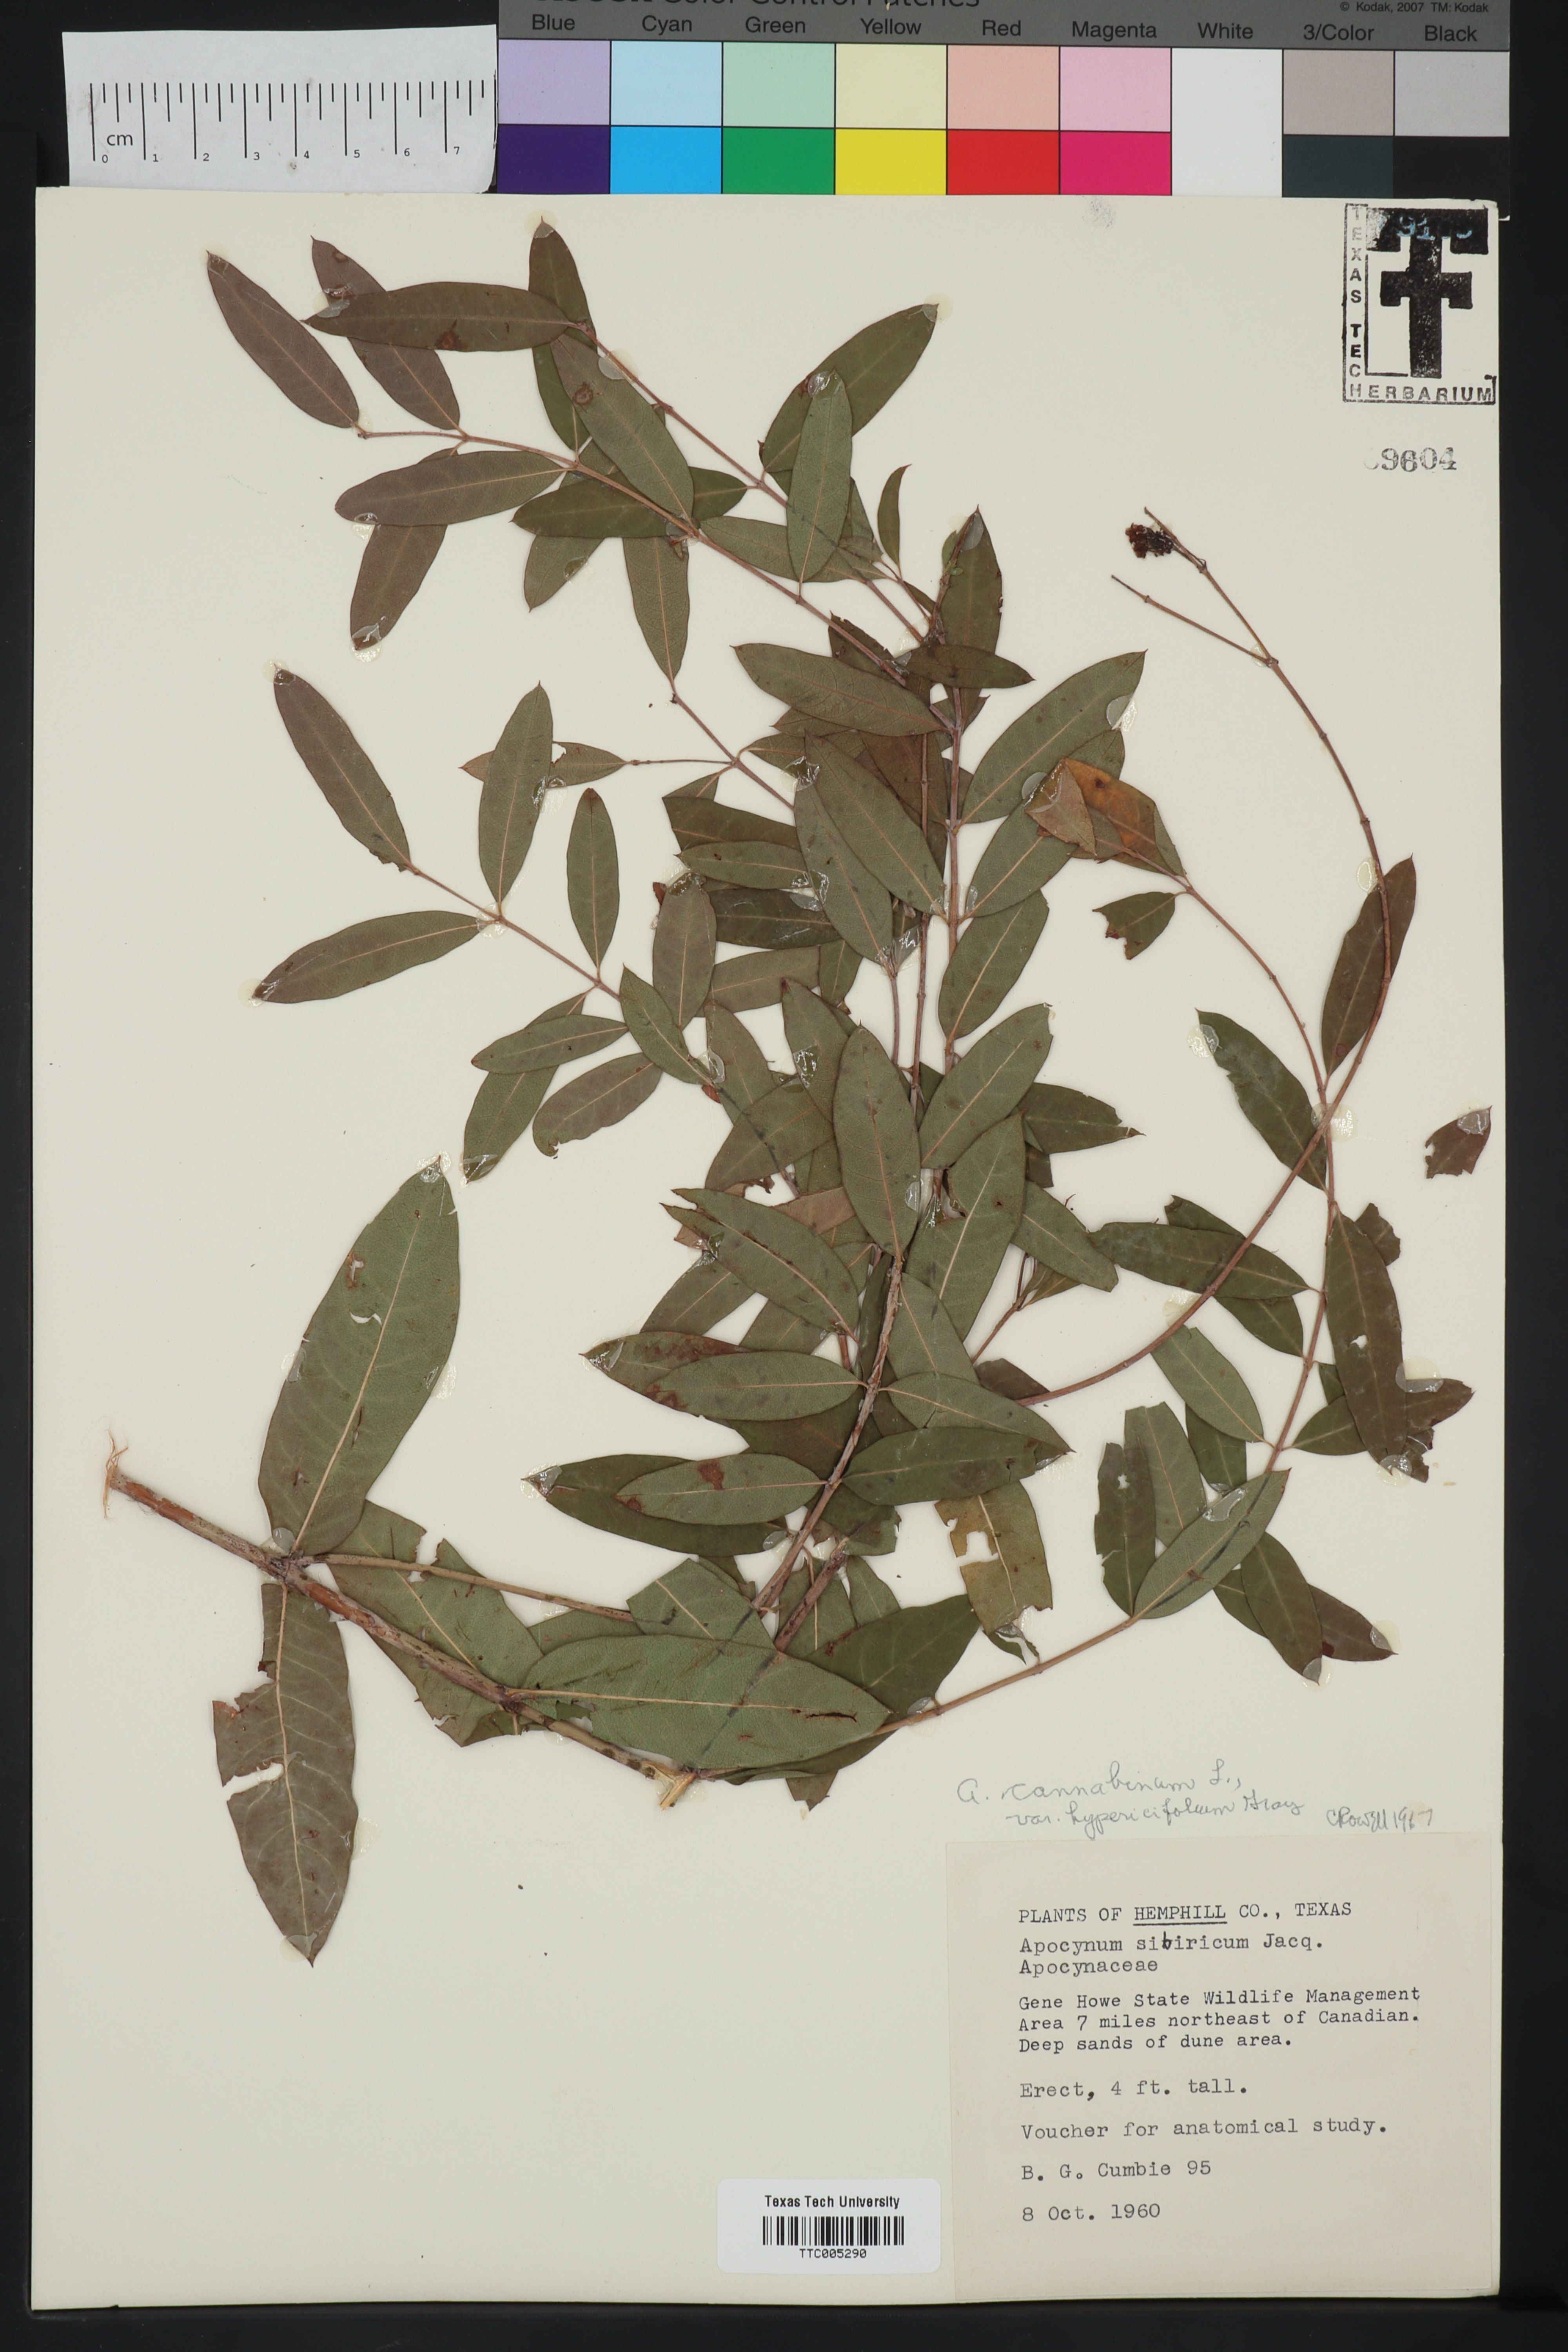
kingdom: Plantae
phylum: Tracheophyta
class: Magnoliopsida
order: Gentianales
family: Apocynaceae
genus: Apocynum
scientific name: Apocynum cannabinum
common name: Hemp dogbane
